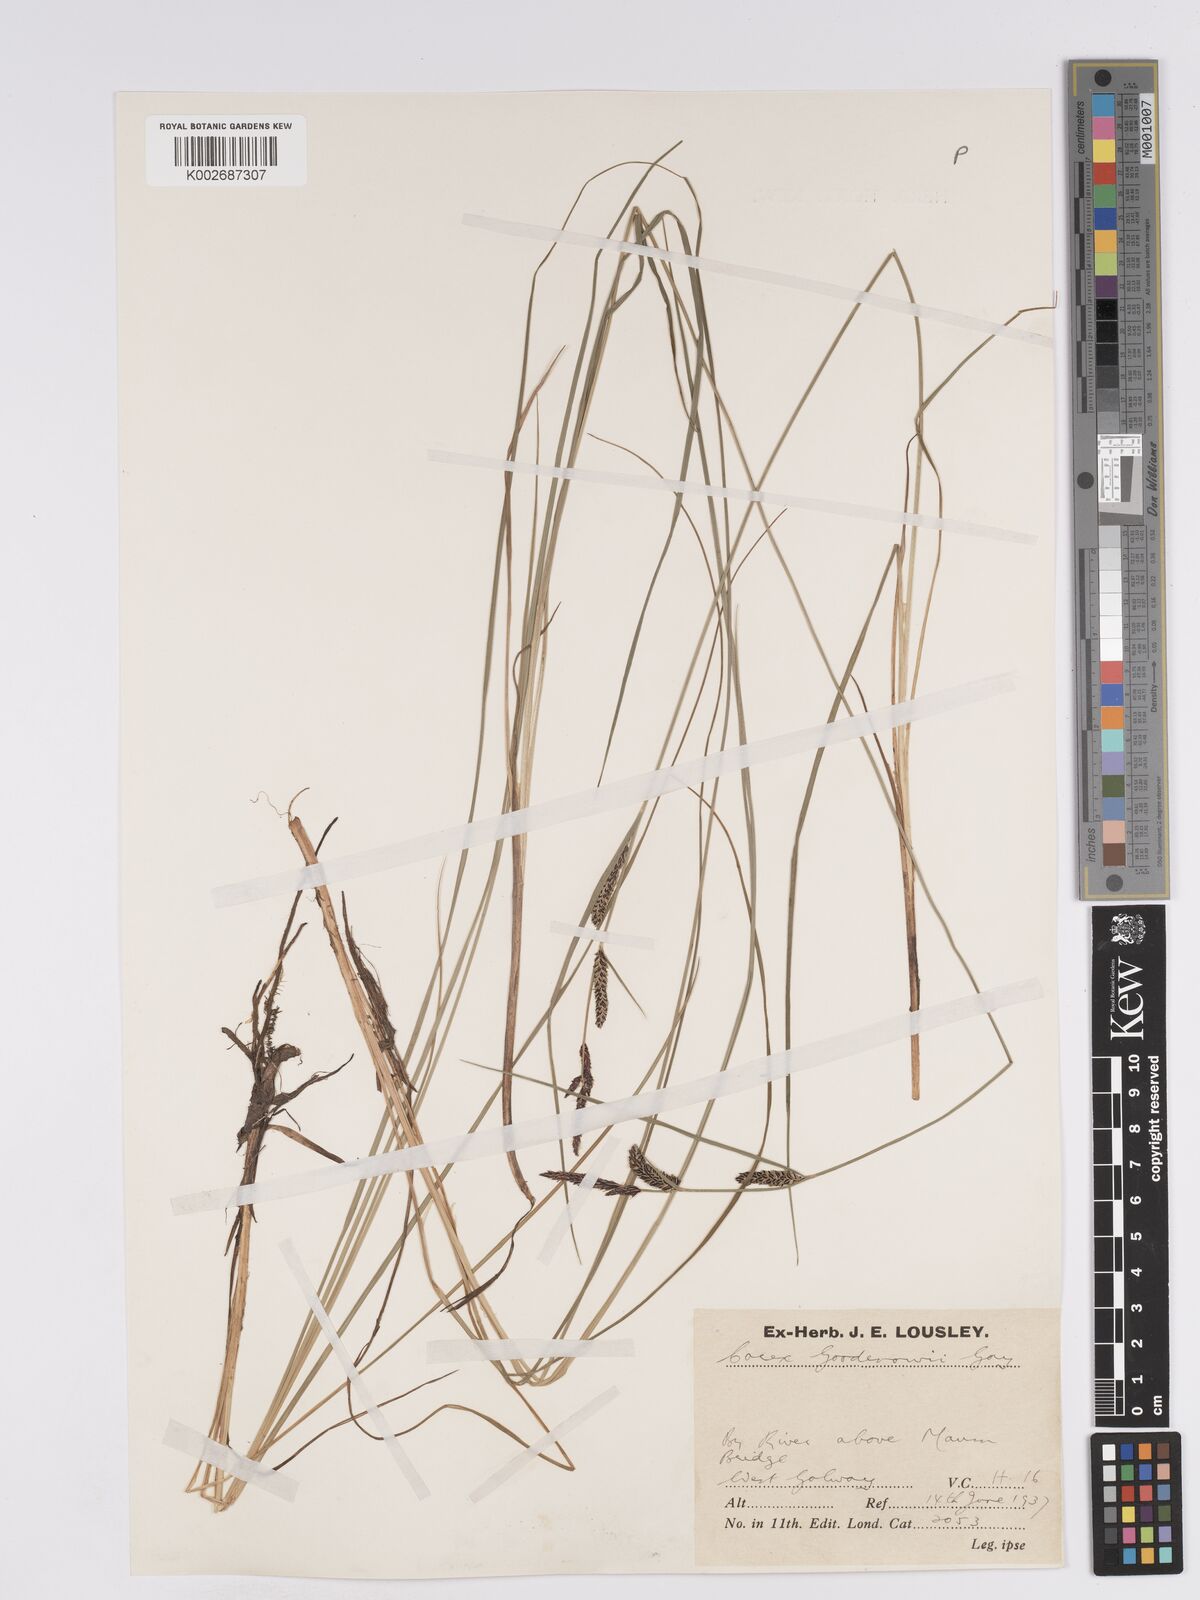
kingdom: Plantae
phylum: Tracheophyta
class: Liliopsida
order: Poales
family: Cyperaceae
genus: Carex
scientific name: Carex nigra
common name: Common sedge
